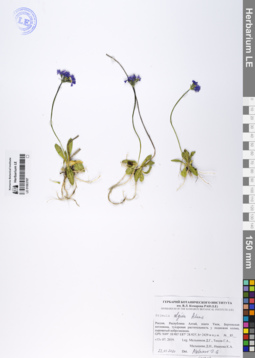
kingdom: Plantae
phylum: Tracheophyta
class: Magnoliopsida
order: Ericales
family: Primulaceae
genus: Primula
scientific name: Primula algida
